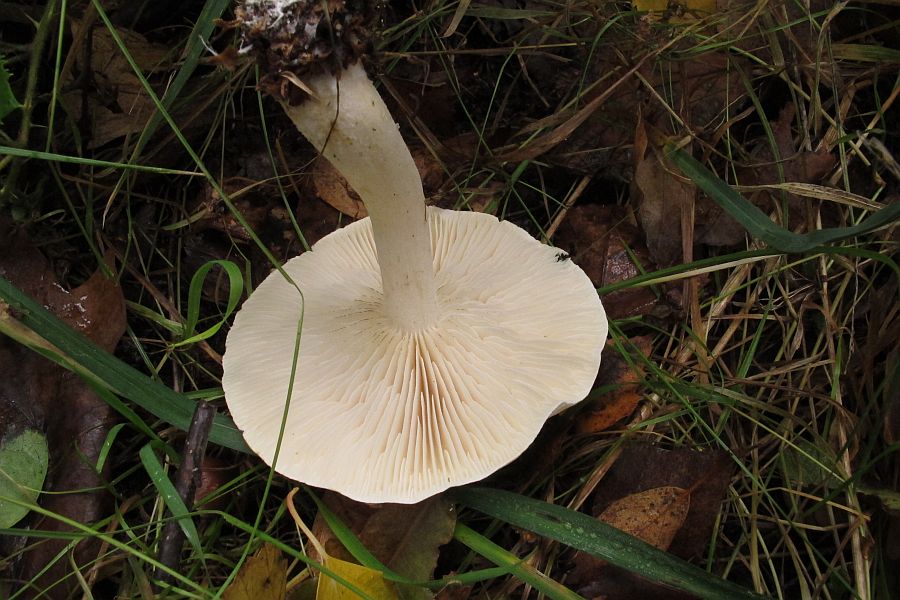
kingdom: Fungi
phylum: Basidiomycota
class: Agaricomycetes
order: Agaricales
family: Omphalotaceae
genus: Rhodocollybia
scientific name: Rhodocollybia maculata
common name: plettet fladhat
